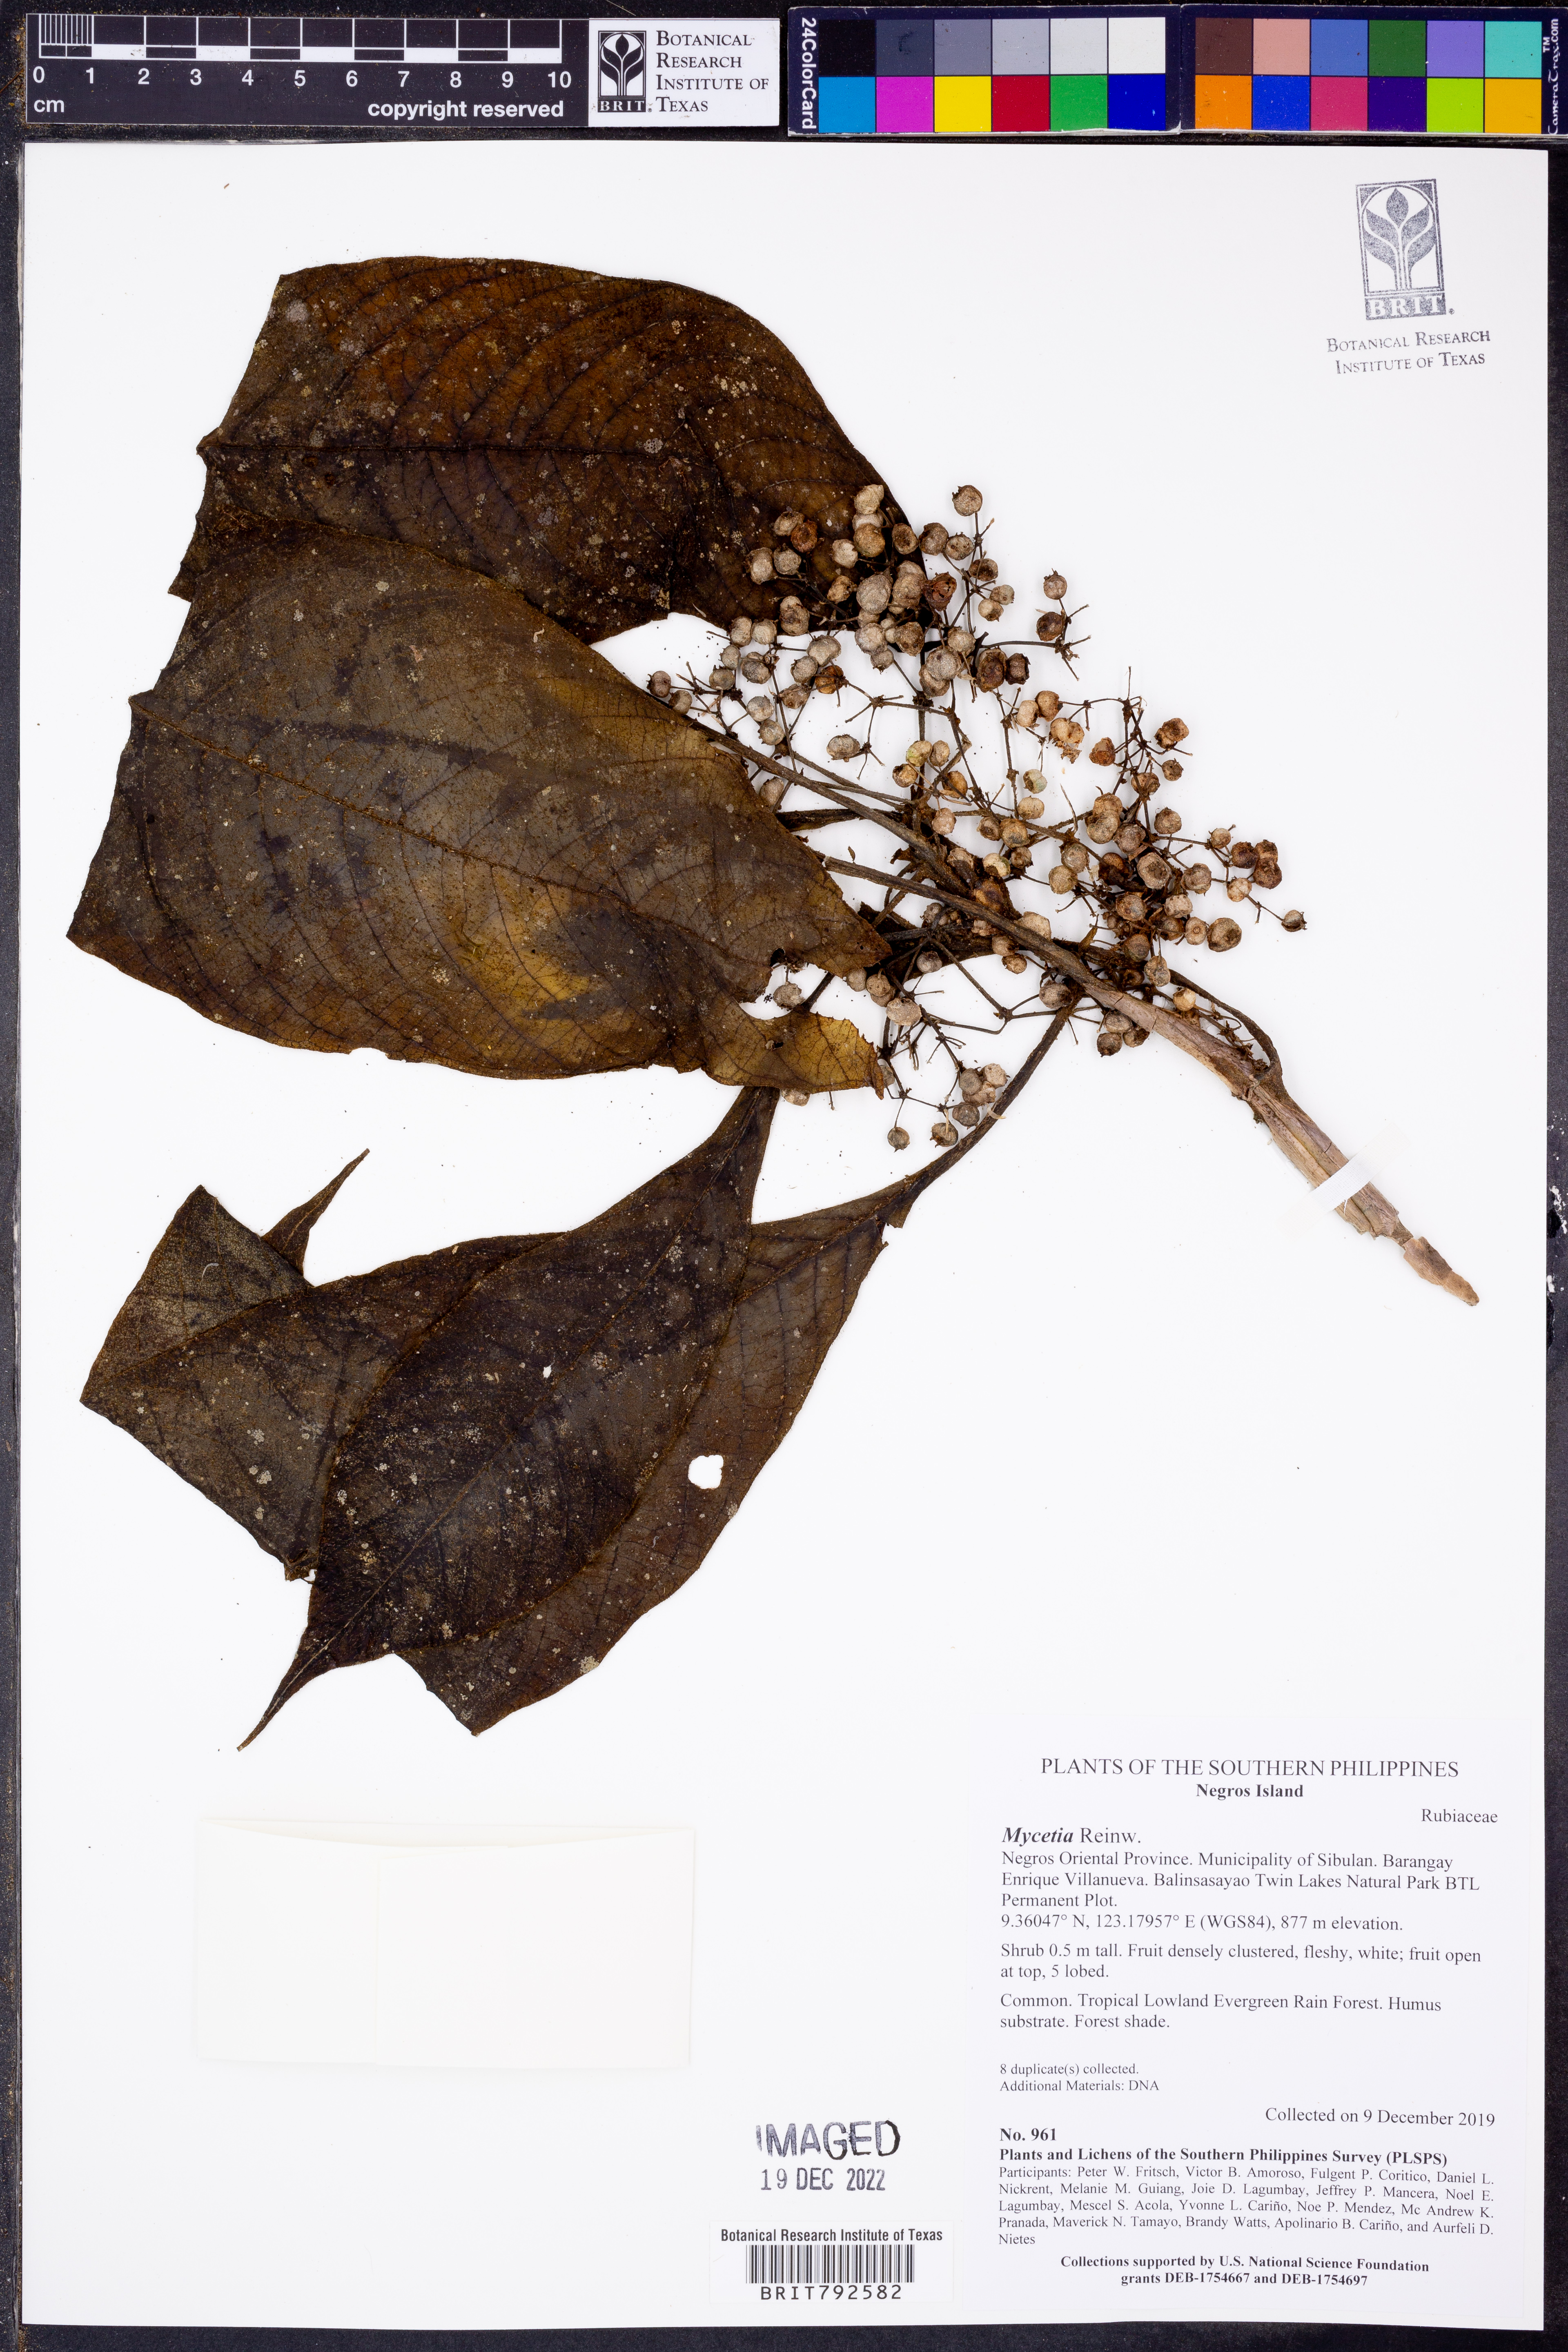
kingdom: Plantae
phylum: Tracheophyta
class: Magnoliopsida
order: Gentianales
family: Rubiaceae
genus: Mycetia
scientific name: Mycetia
